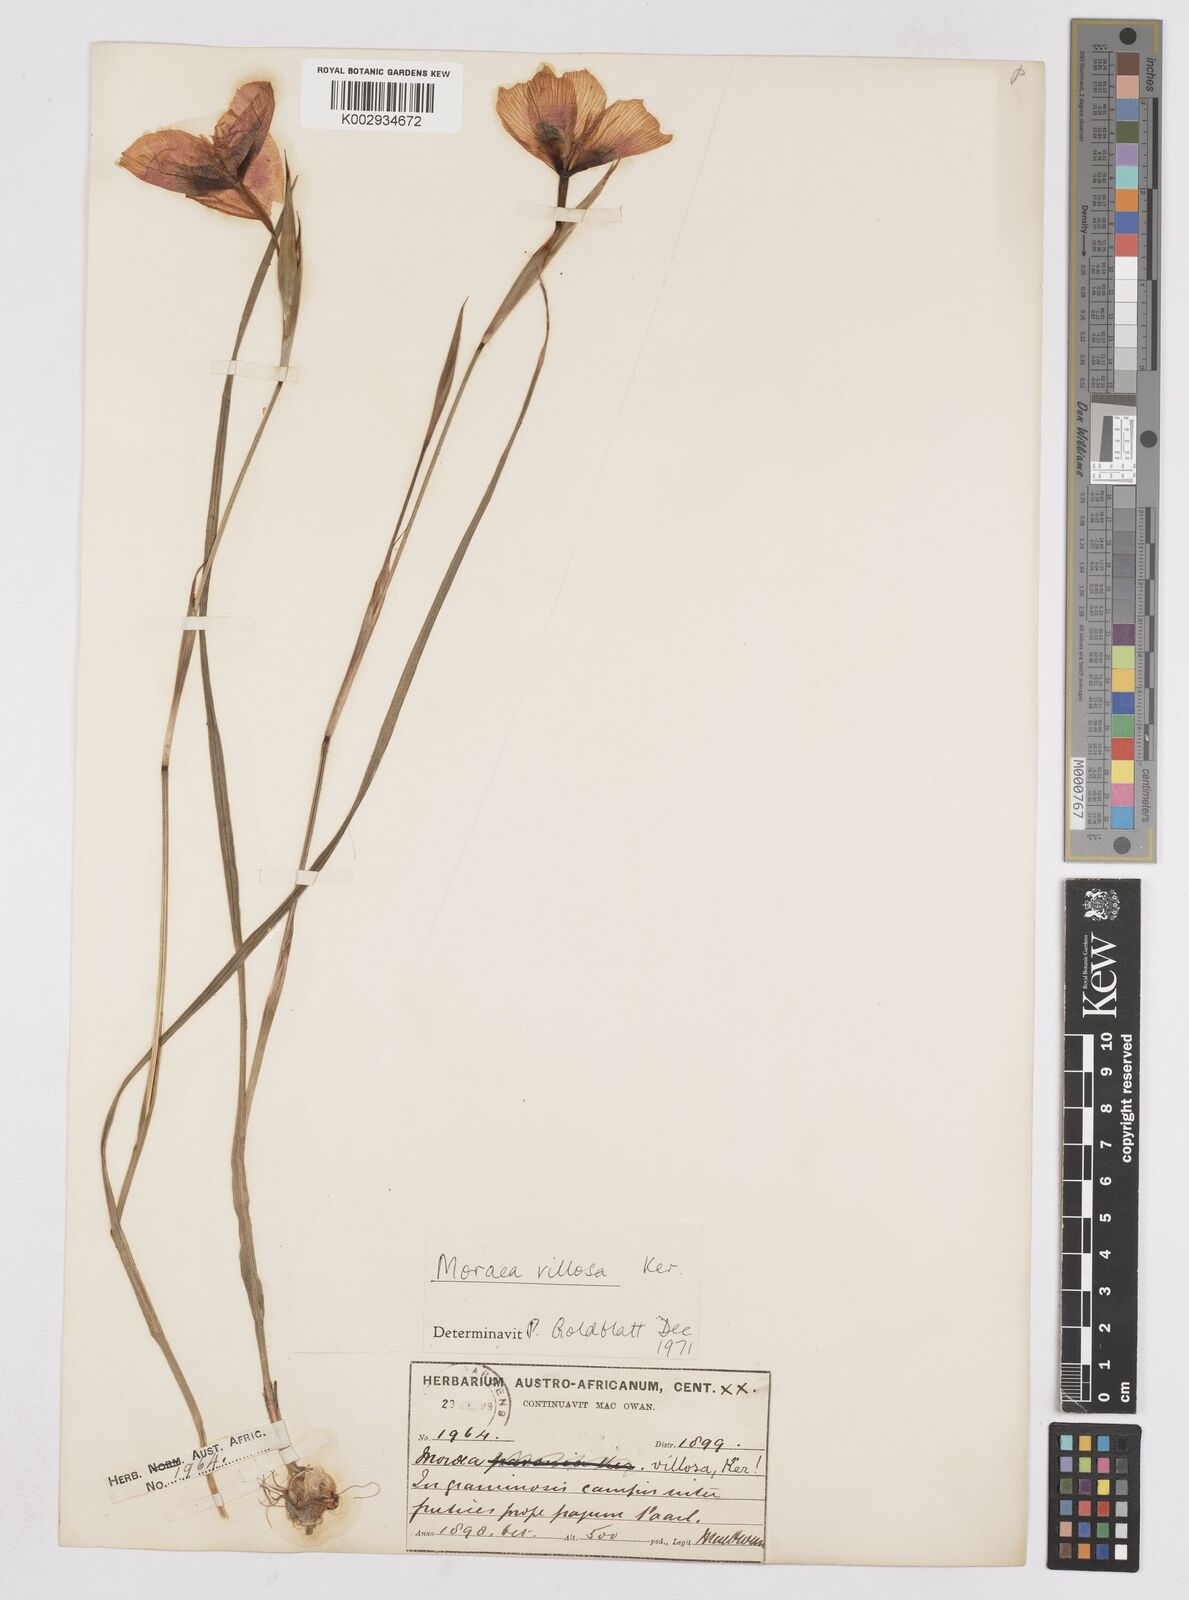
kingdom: Plantae
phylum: Tracheophyta
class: Liliopsida
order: Asparagales
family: Iridaceae
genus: Moraea
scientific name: Moraea villosa
